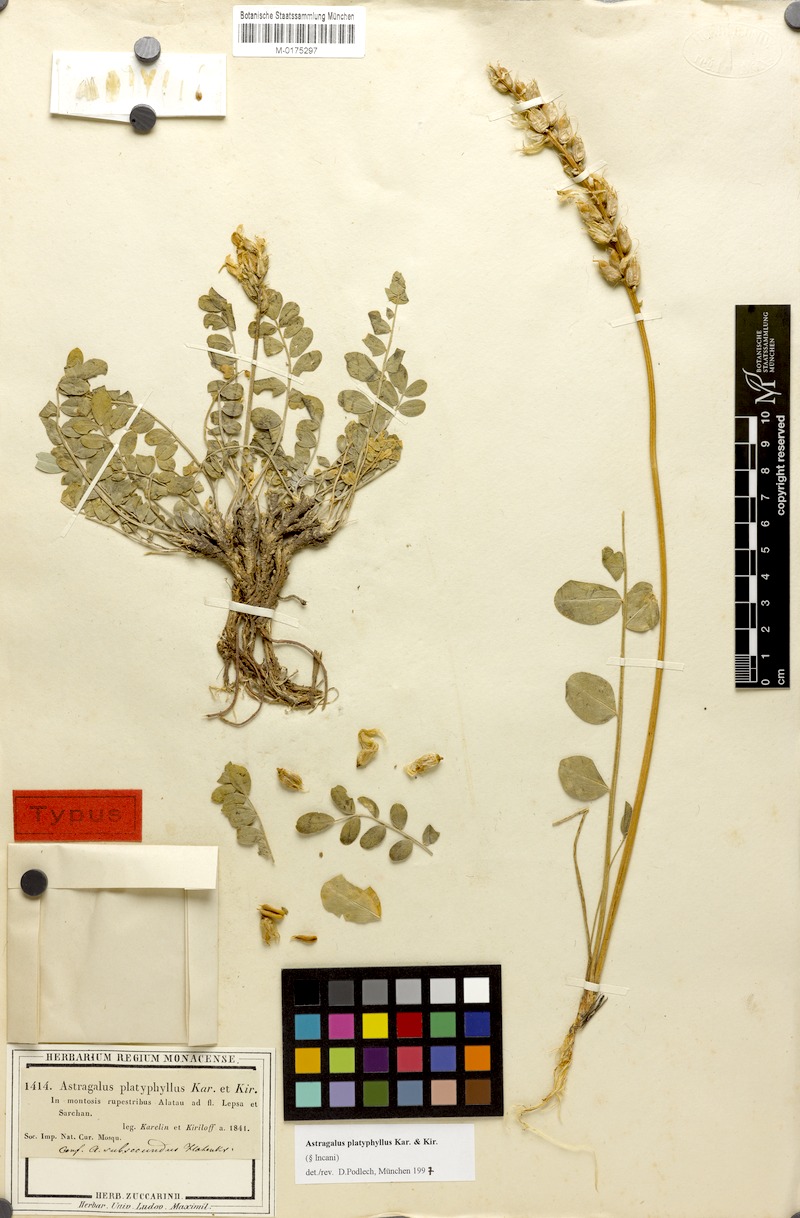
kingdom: Plantae
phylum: Tracheophyta
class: Magnoliopsida
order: Fabales
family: Fabaceae
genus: Astragalus
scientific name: Astragalus platyphyllus
